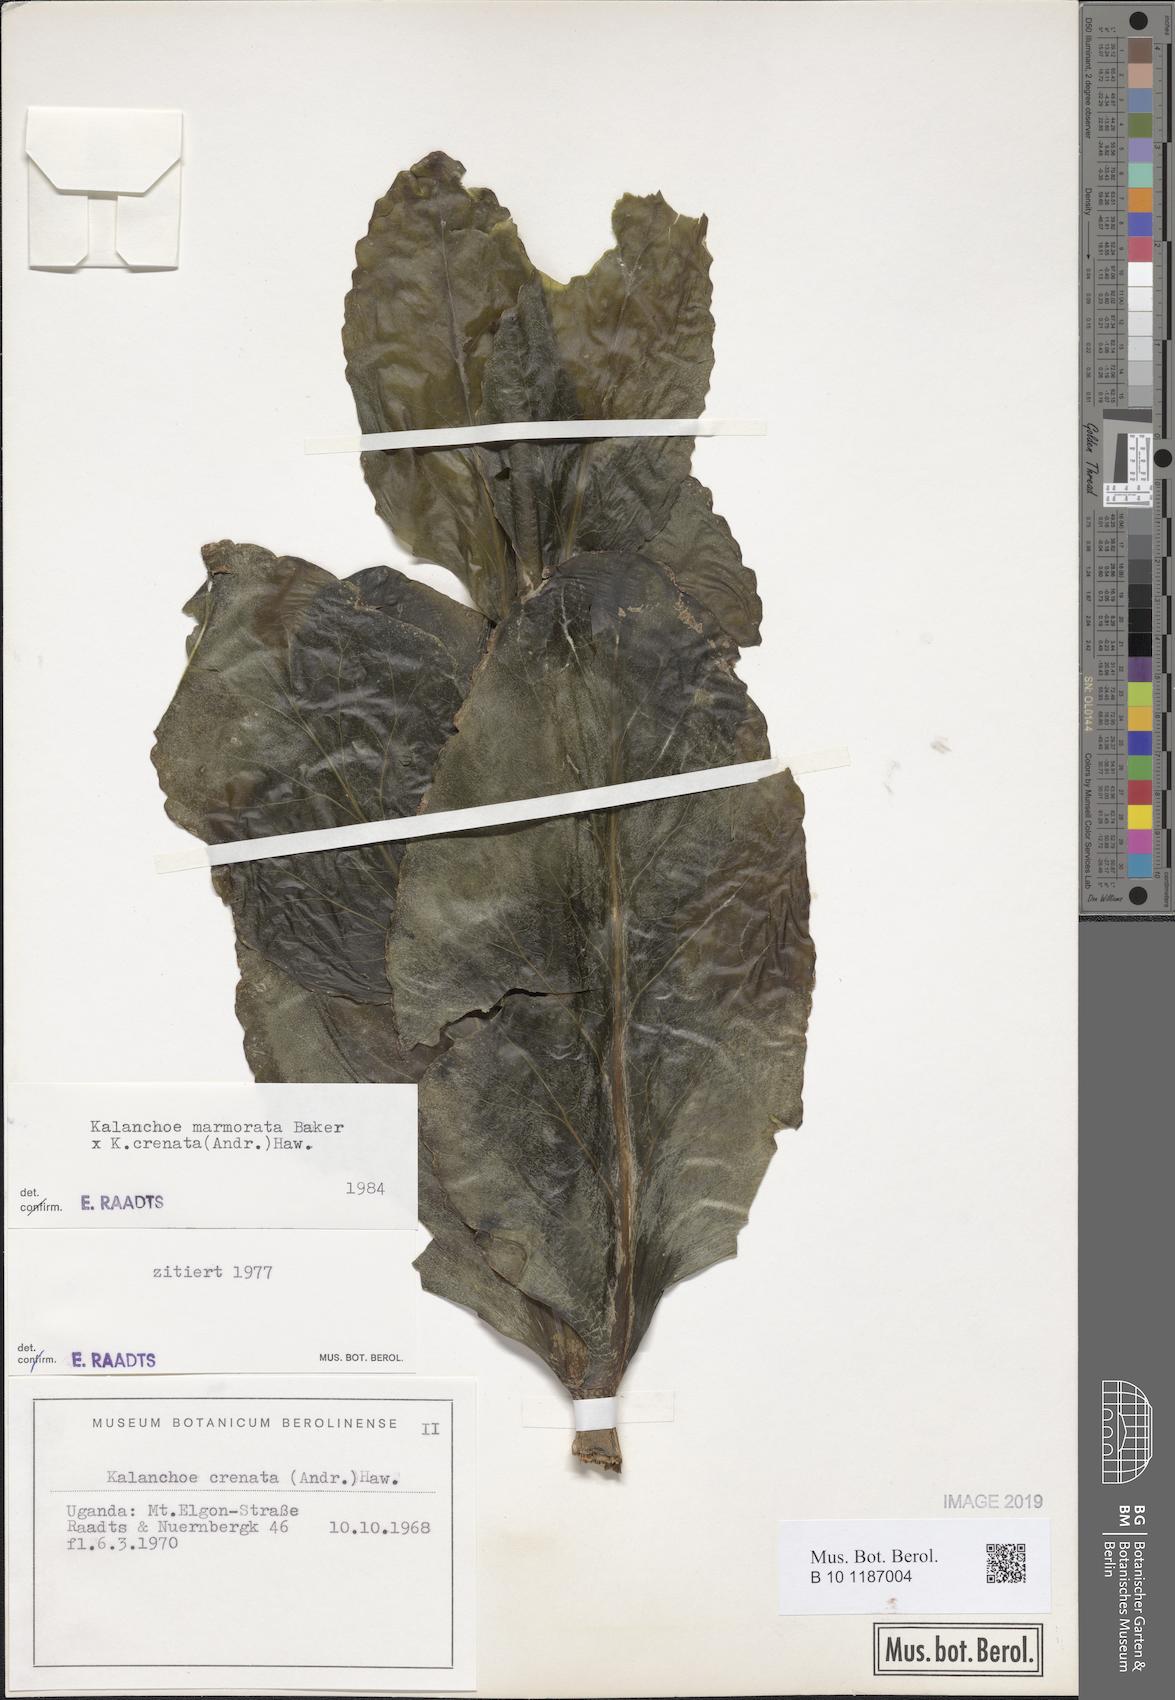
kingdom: Plantae
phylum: Tracheophyta
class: Magnoliopsida
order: Saxifragales
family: Crassulaceae
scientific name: Crassulaceae
